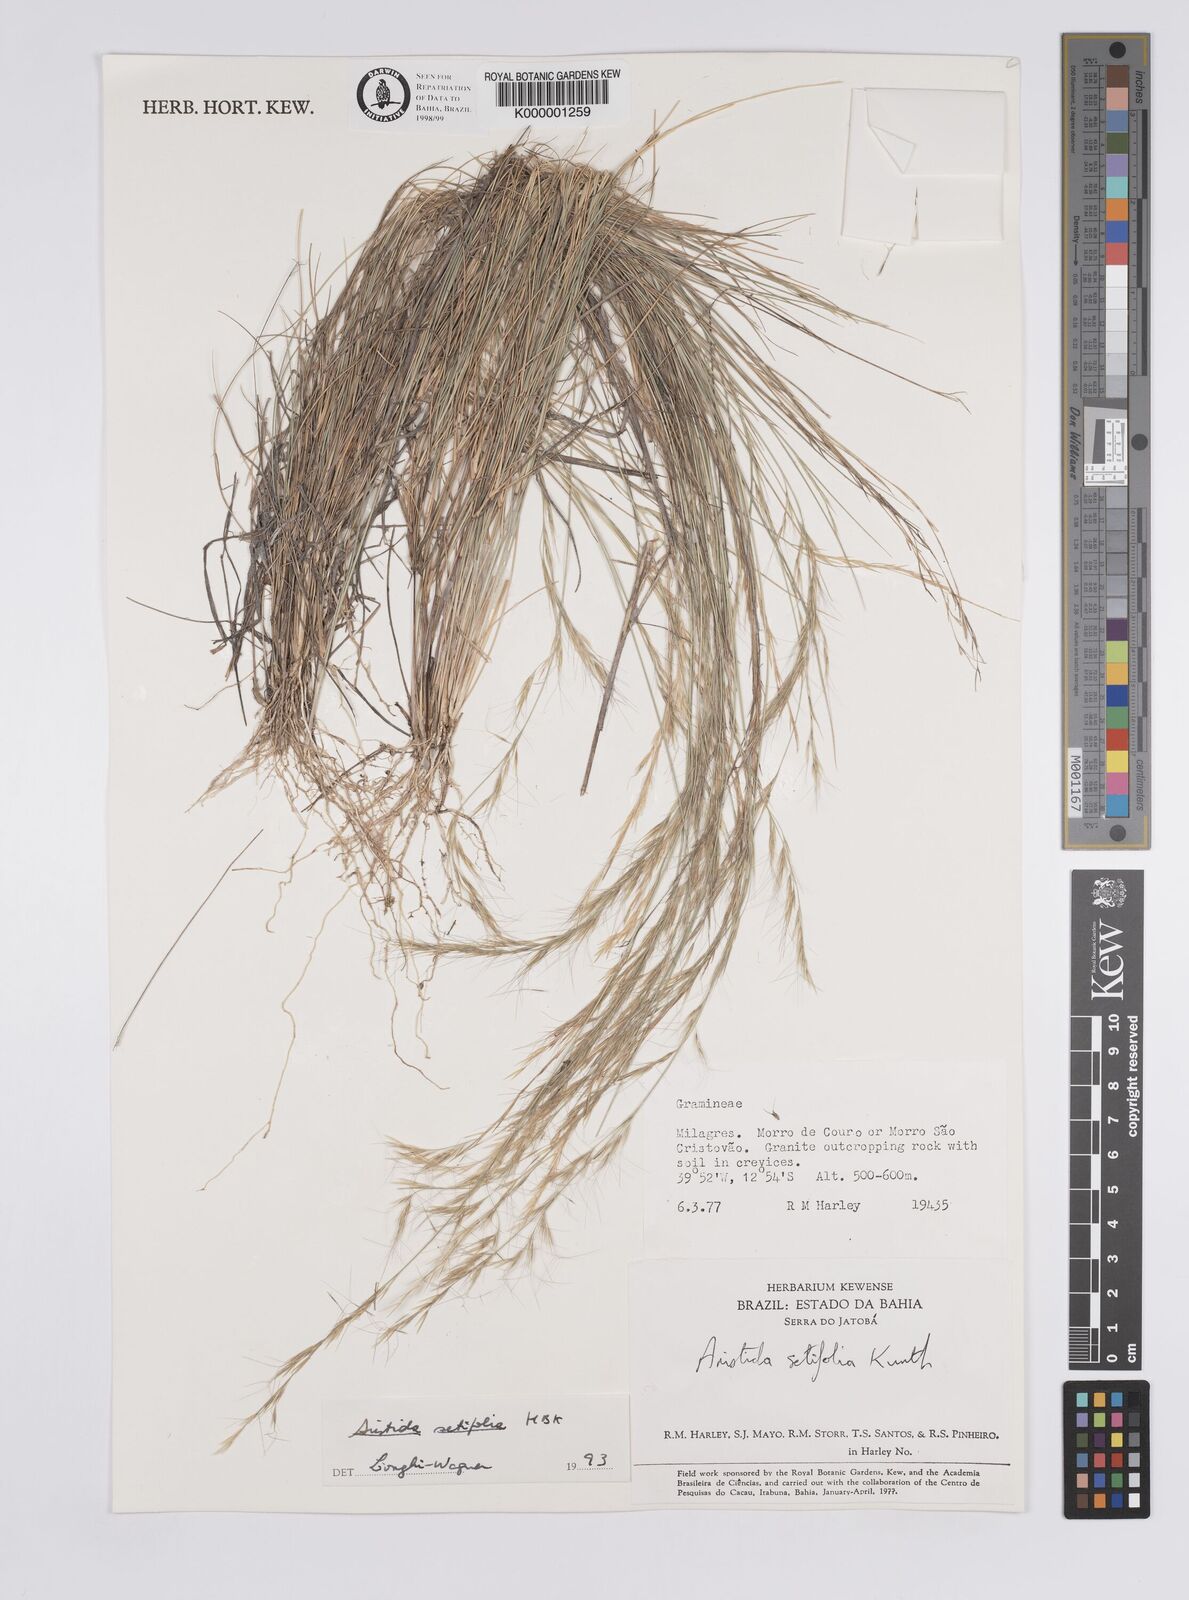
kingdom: Plantae
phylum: Tracheophyta
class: Liliopsida
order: Poales
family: Poaceae
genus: Aristida
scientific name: Aristida setifolia
